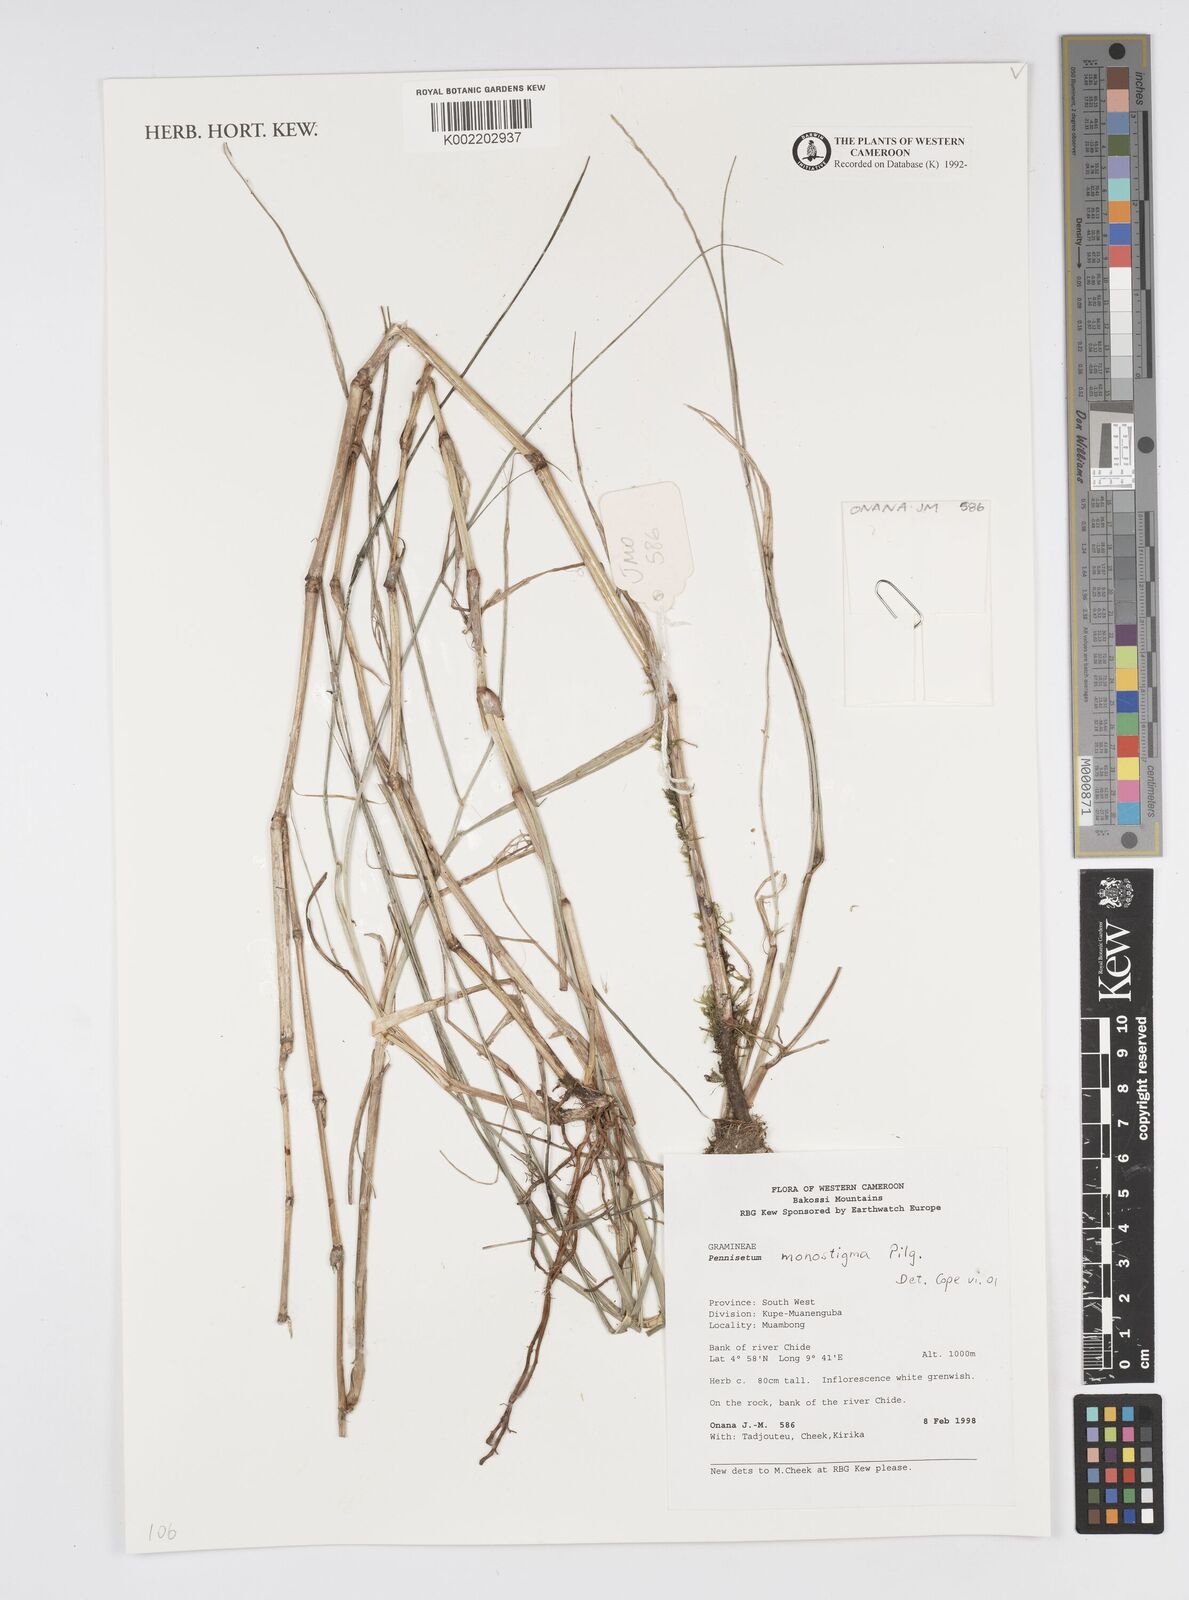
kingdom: Plantae
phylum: Tracheophyta
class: Liliopsida
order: Poales
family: Poaceae
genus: Cenchrus
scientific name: Cenchrus monostigma
